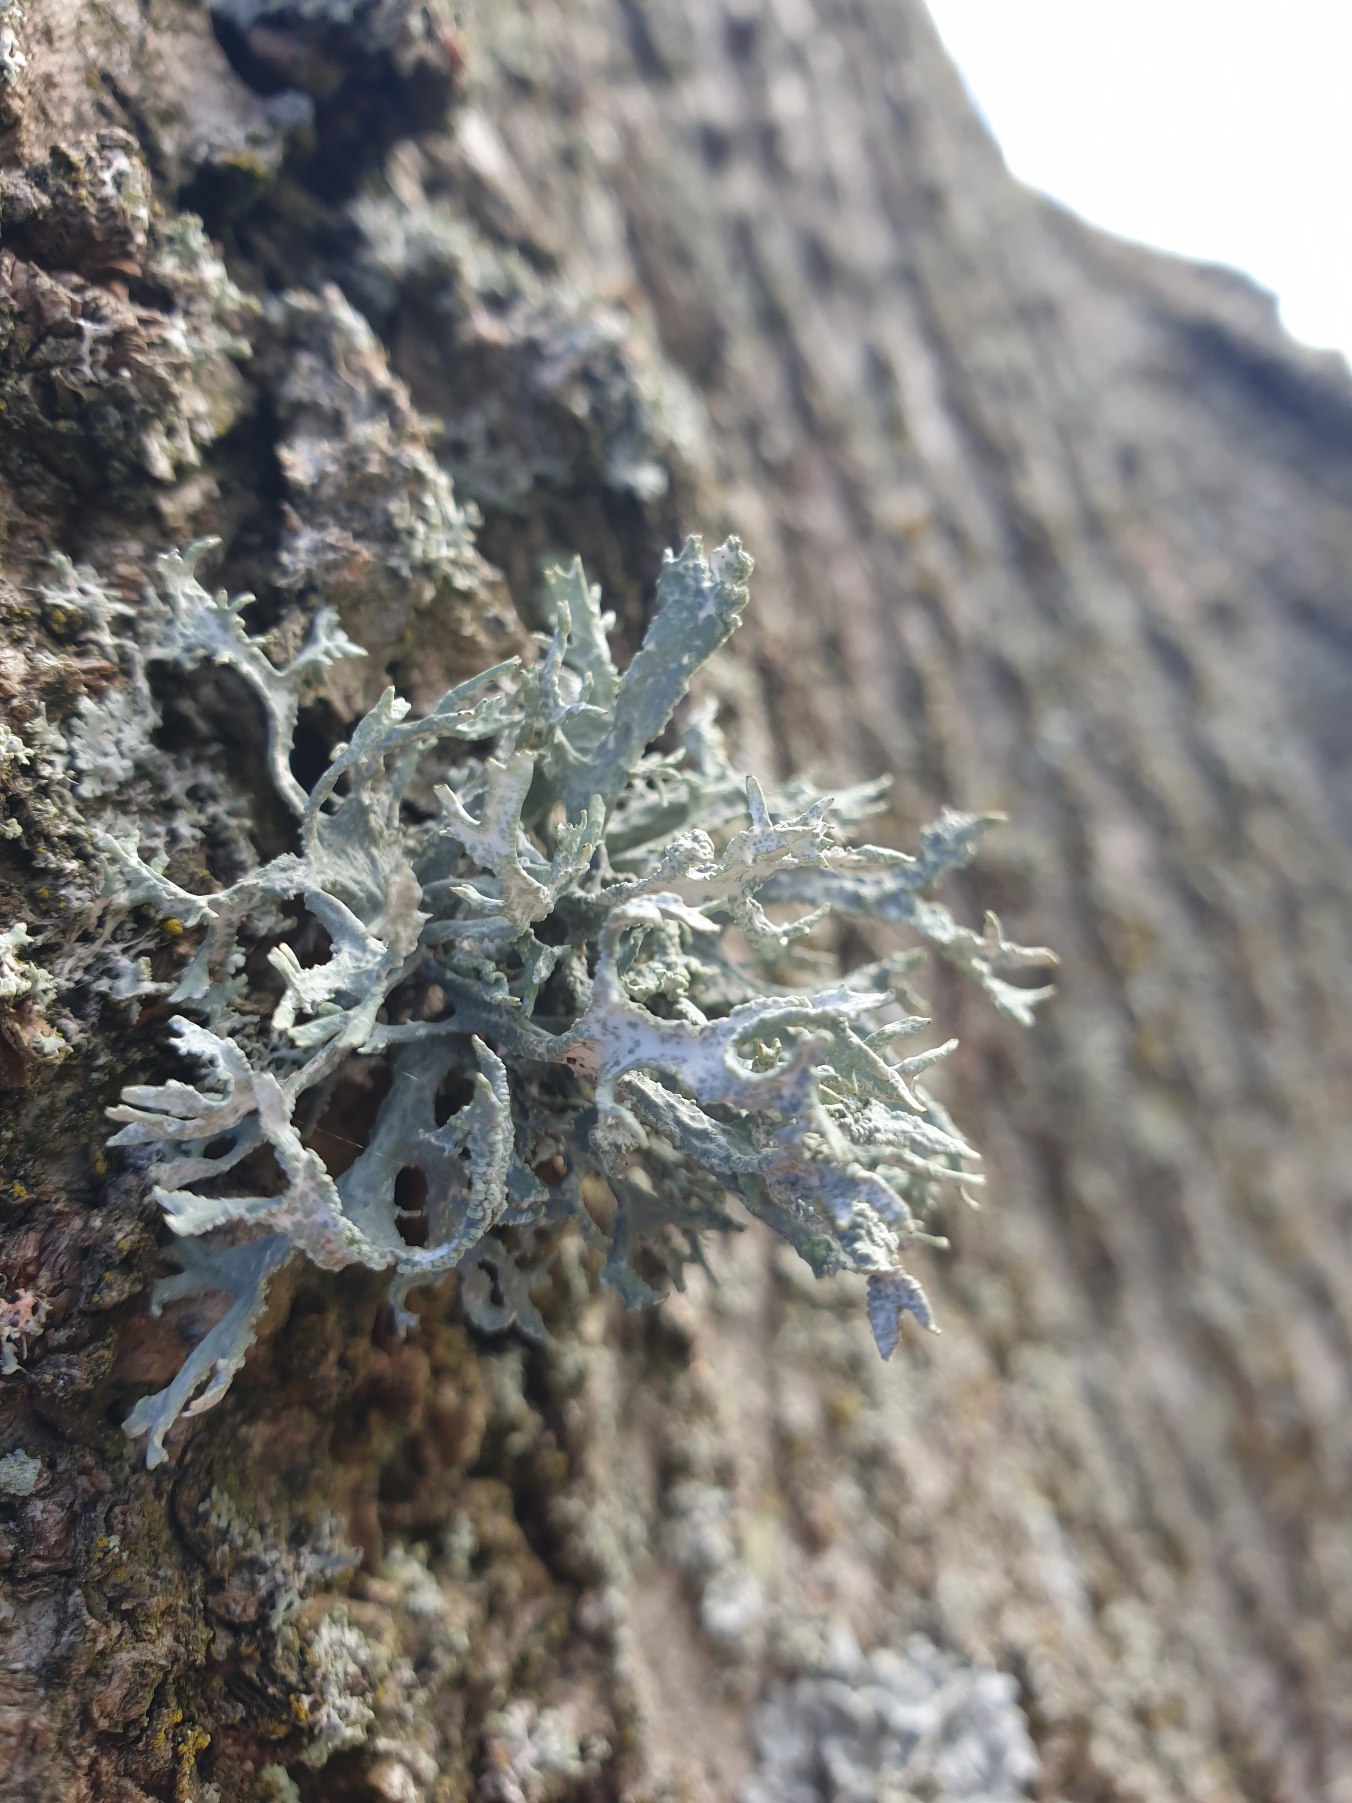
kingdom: Fungi
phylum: Ascomycota
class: Lecanoromycetes
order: Lecanorales
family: Parmeliaceae
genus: Evernia
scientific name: Evernia prunastri
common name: Almindelig slåenlav
